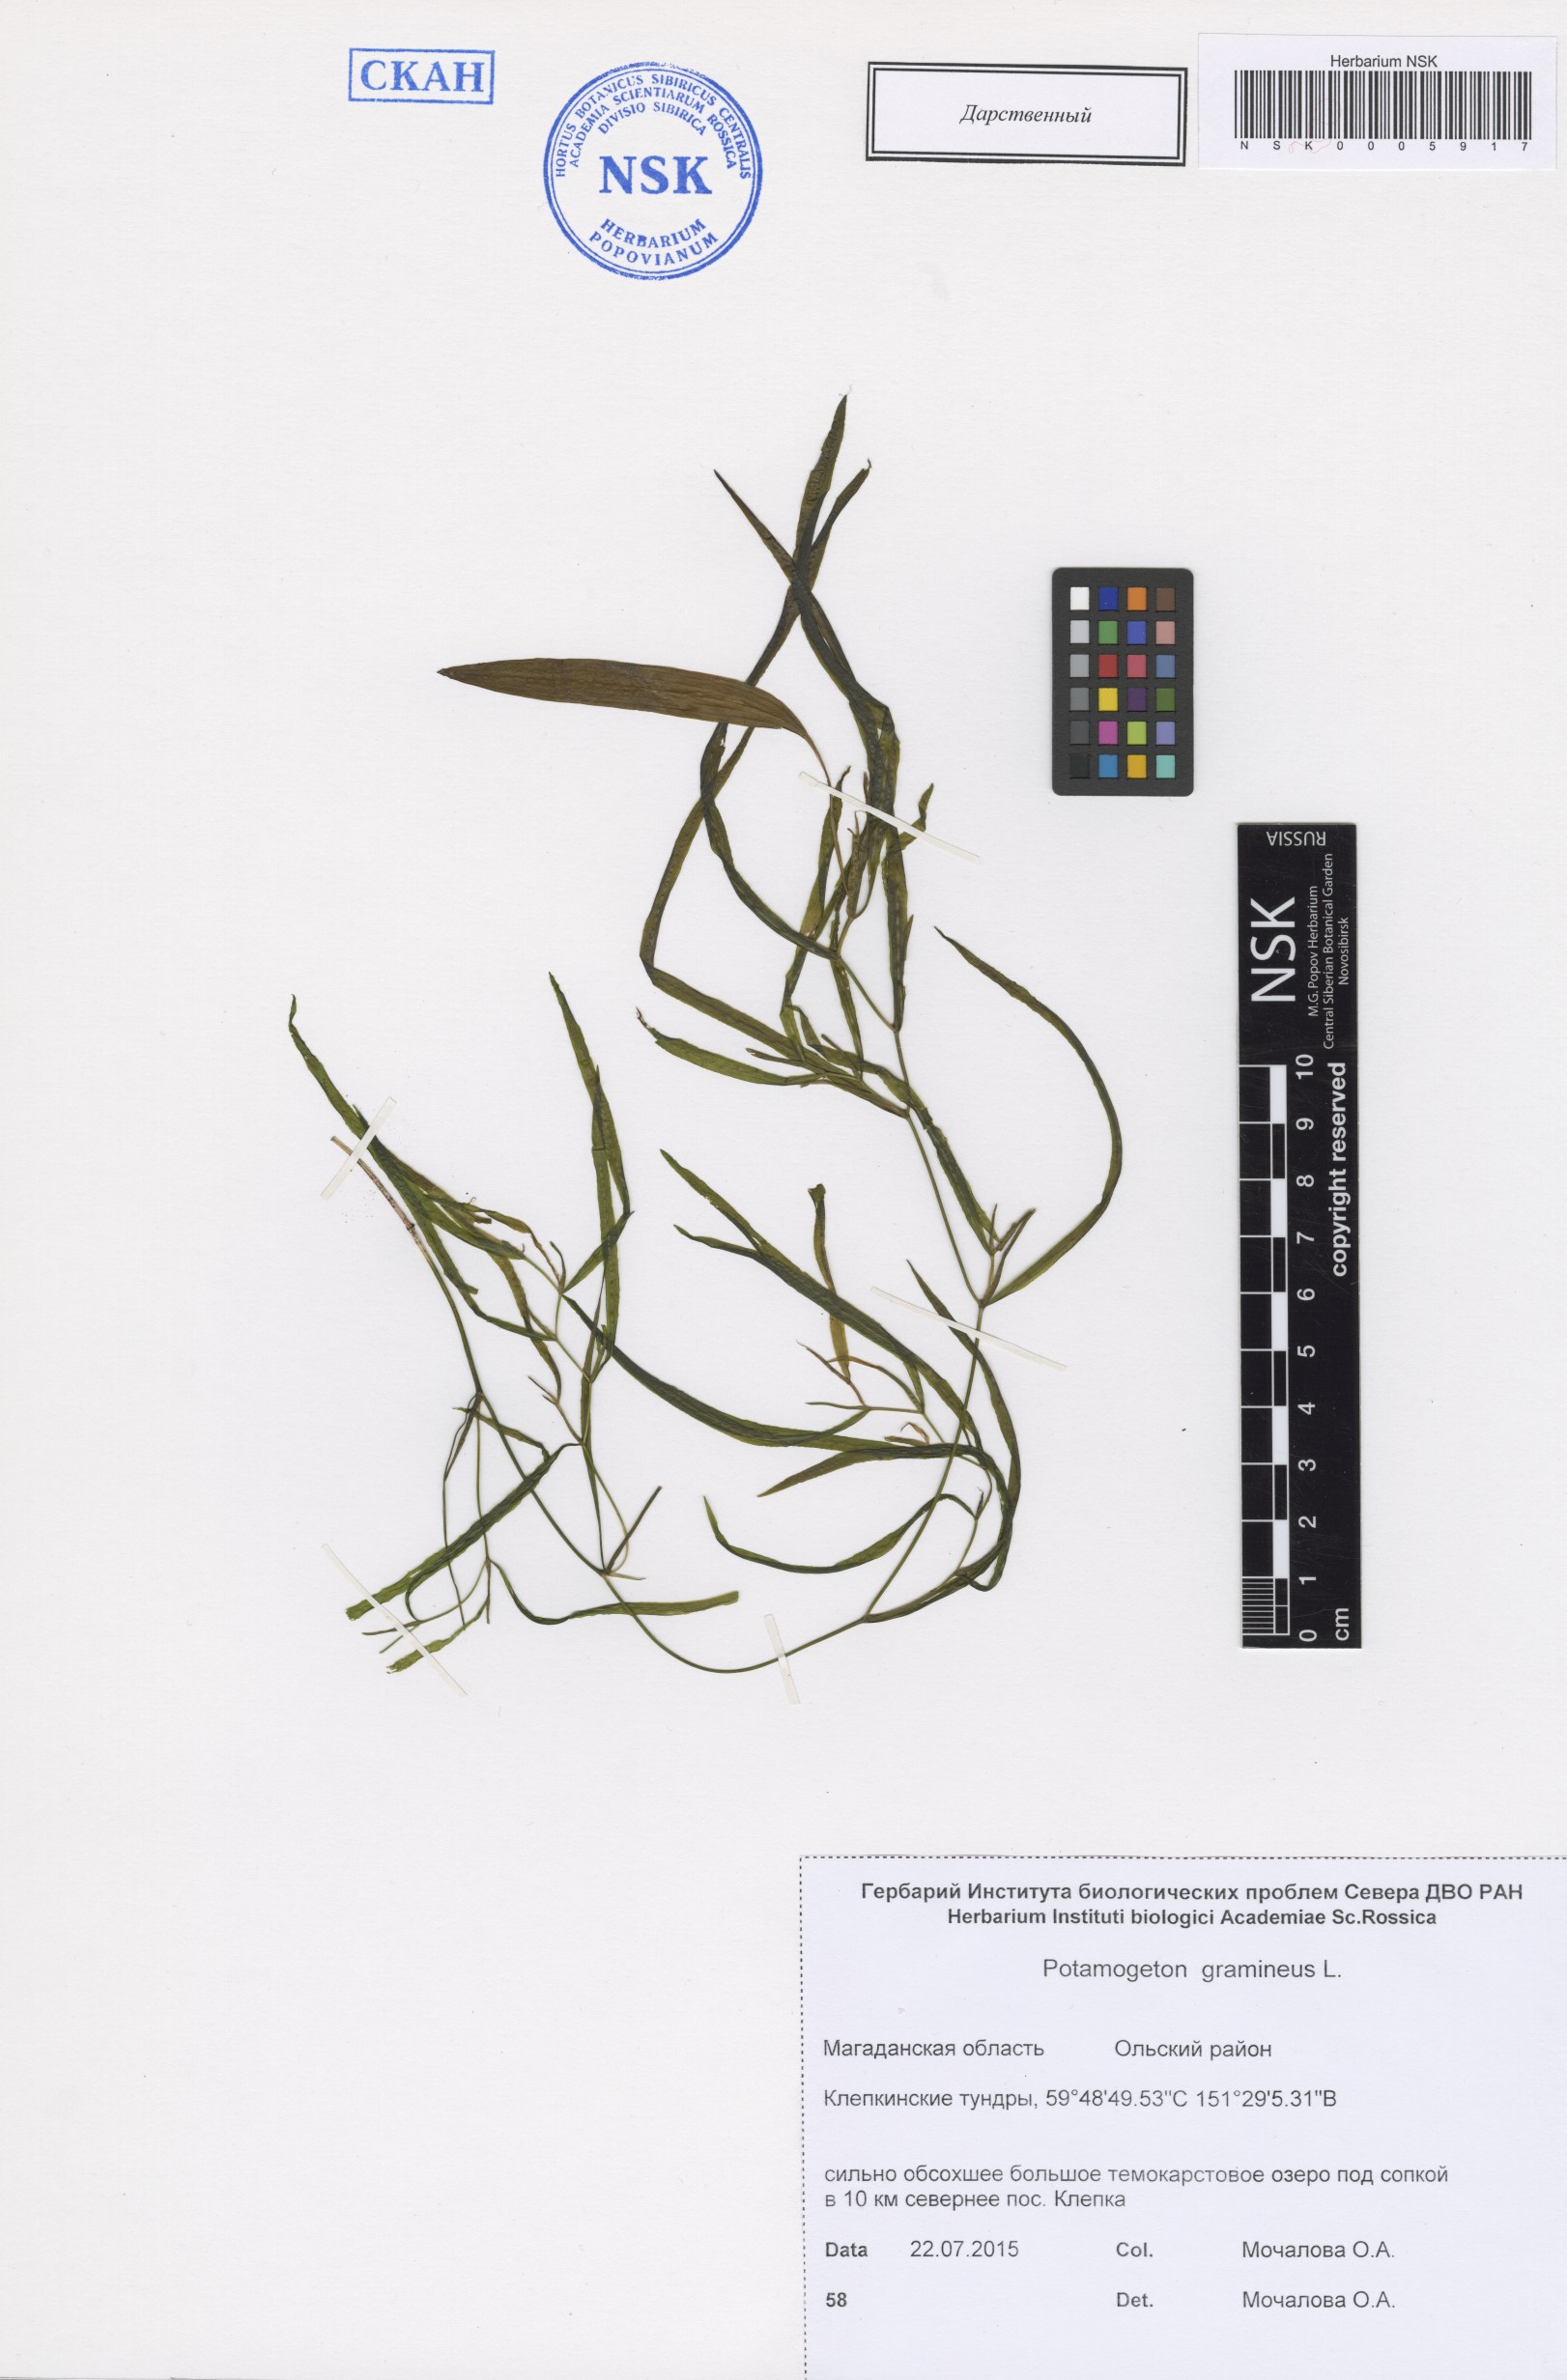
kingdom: Plantae
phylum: Tracheophyta
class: Liliopsida
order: Alismatales
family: Potamogetonaceae
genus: Potamogeton
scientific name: Potamogeton gramineus
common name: Various-leaved pondweed
